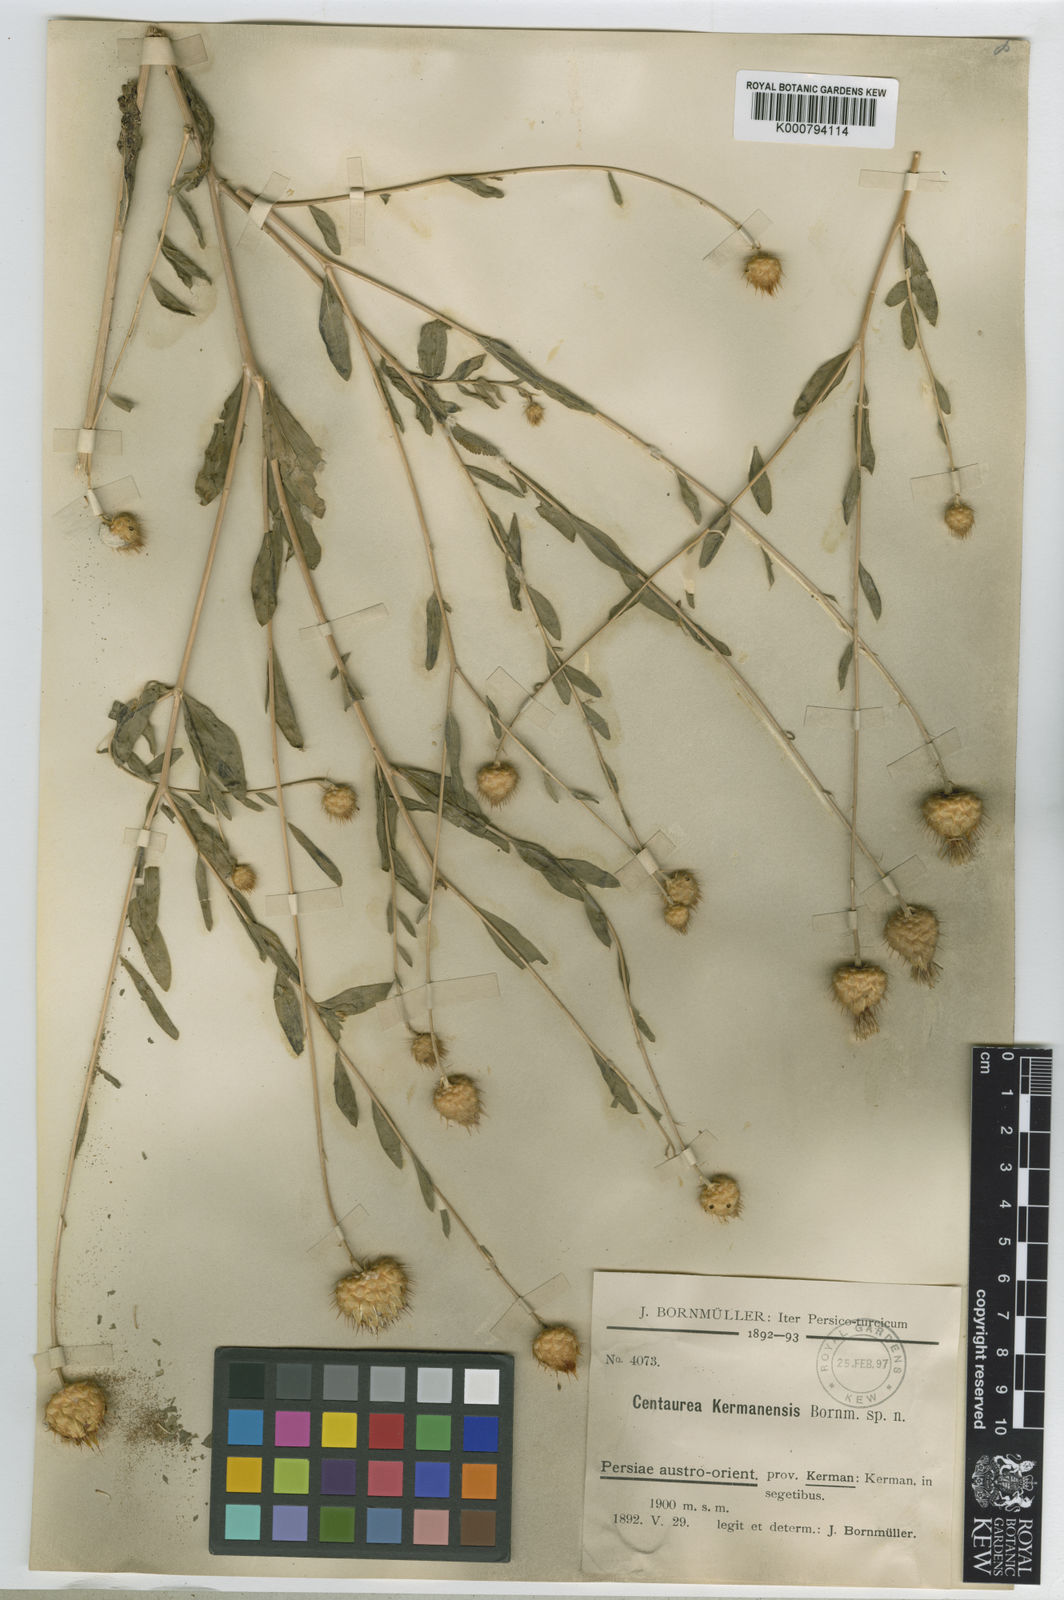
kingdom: Plantae
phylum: Tracheophyta
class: Magnoliopsida
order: Asterales
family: Asteraceae
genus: Stizolophus
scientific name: Stizolophus kermanensis
